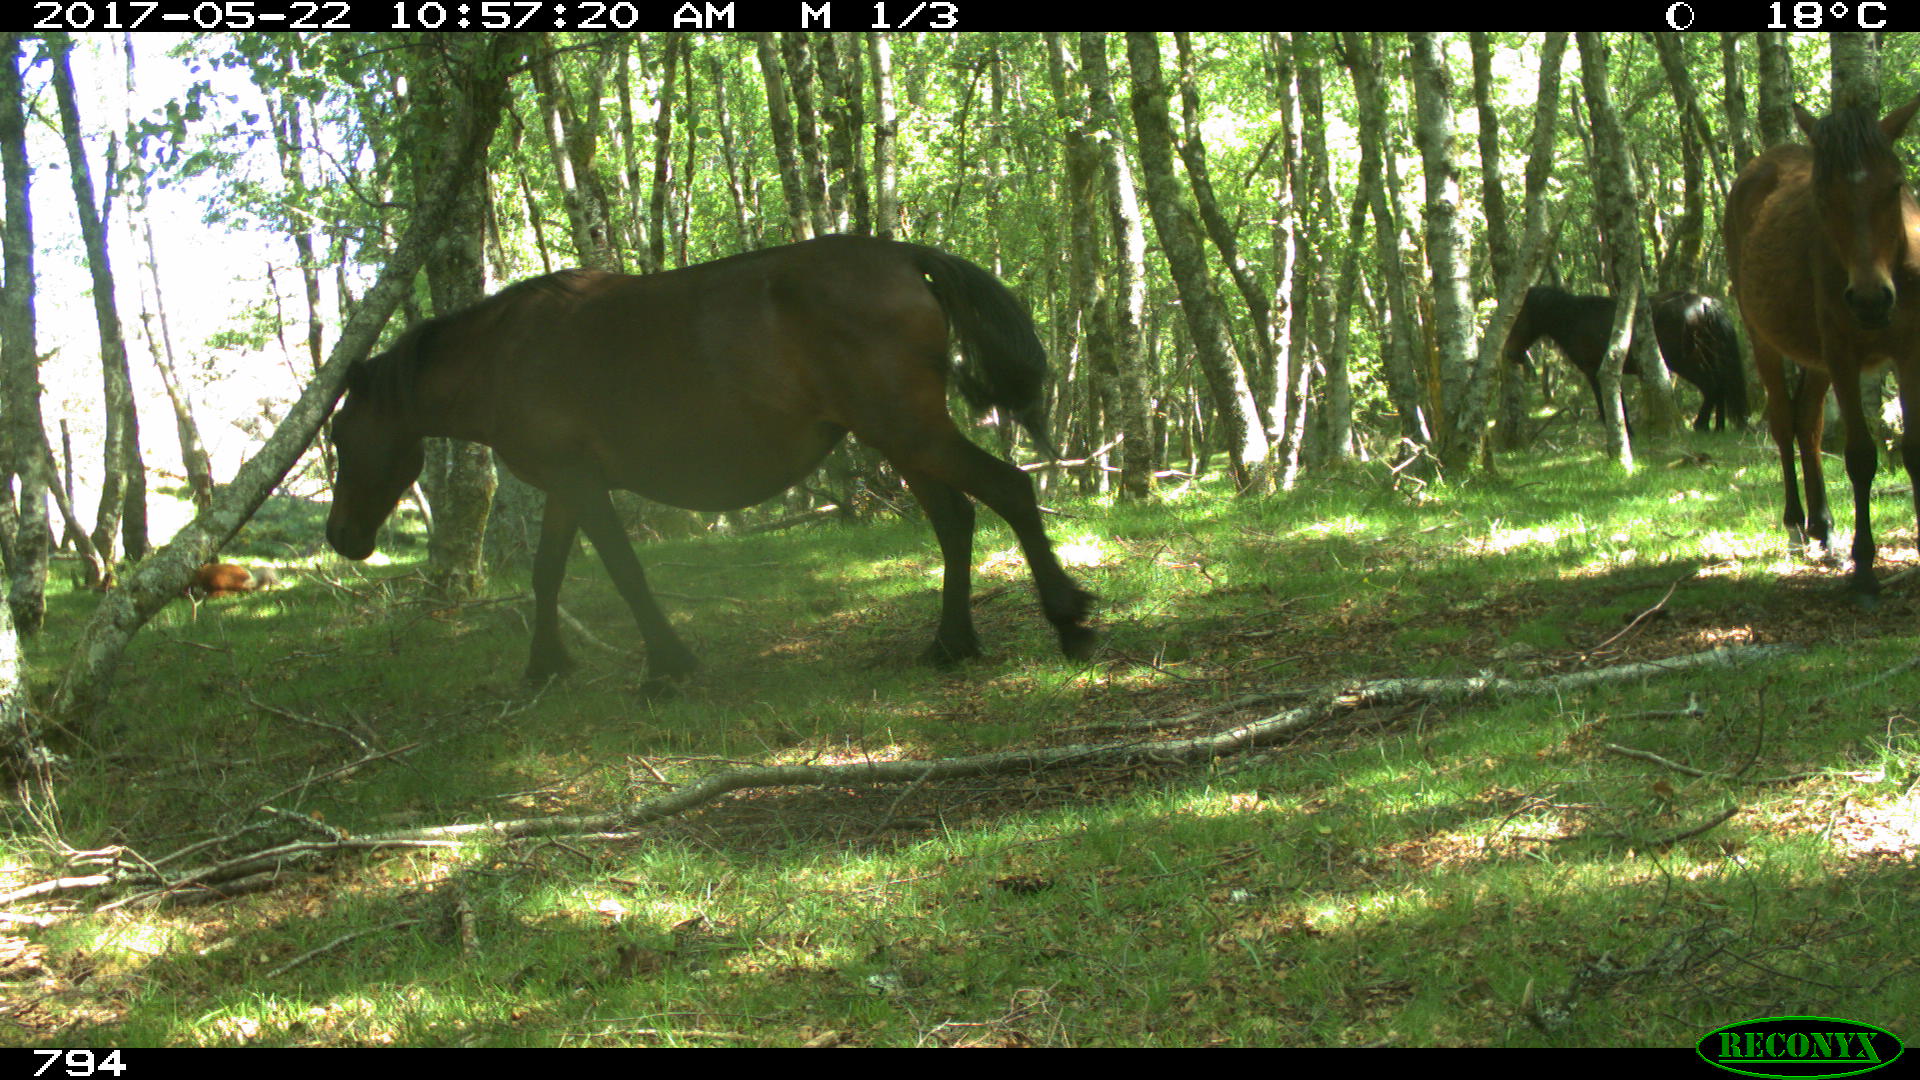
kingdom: Animalia
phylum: Chordata
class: Mammalia
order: Perissodactyla
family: Equidae
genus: Equus
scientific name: Equus caballus
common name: Horse
